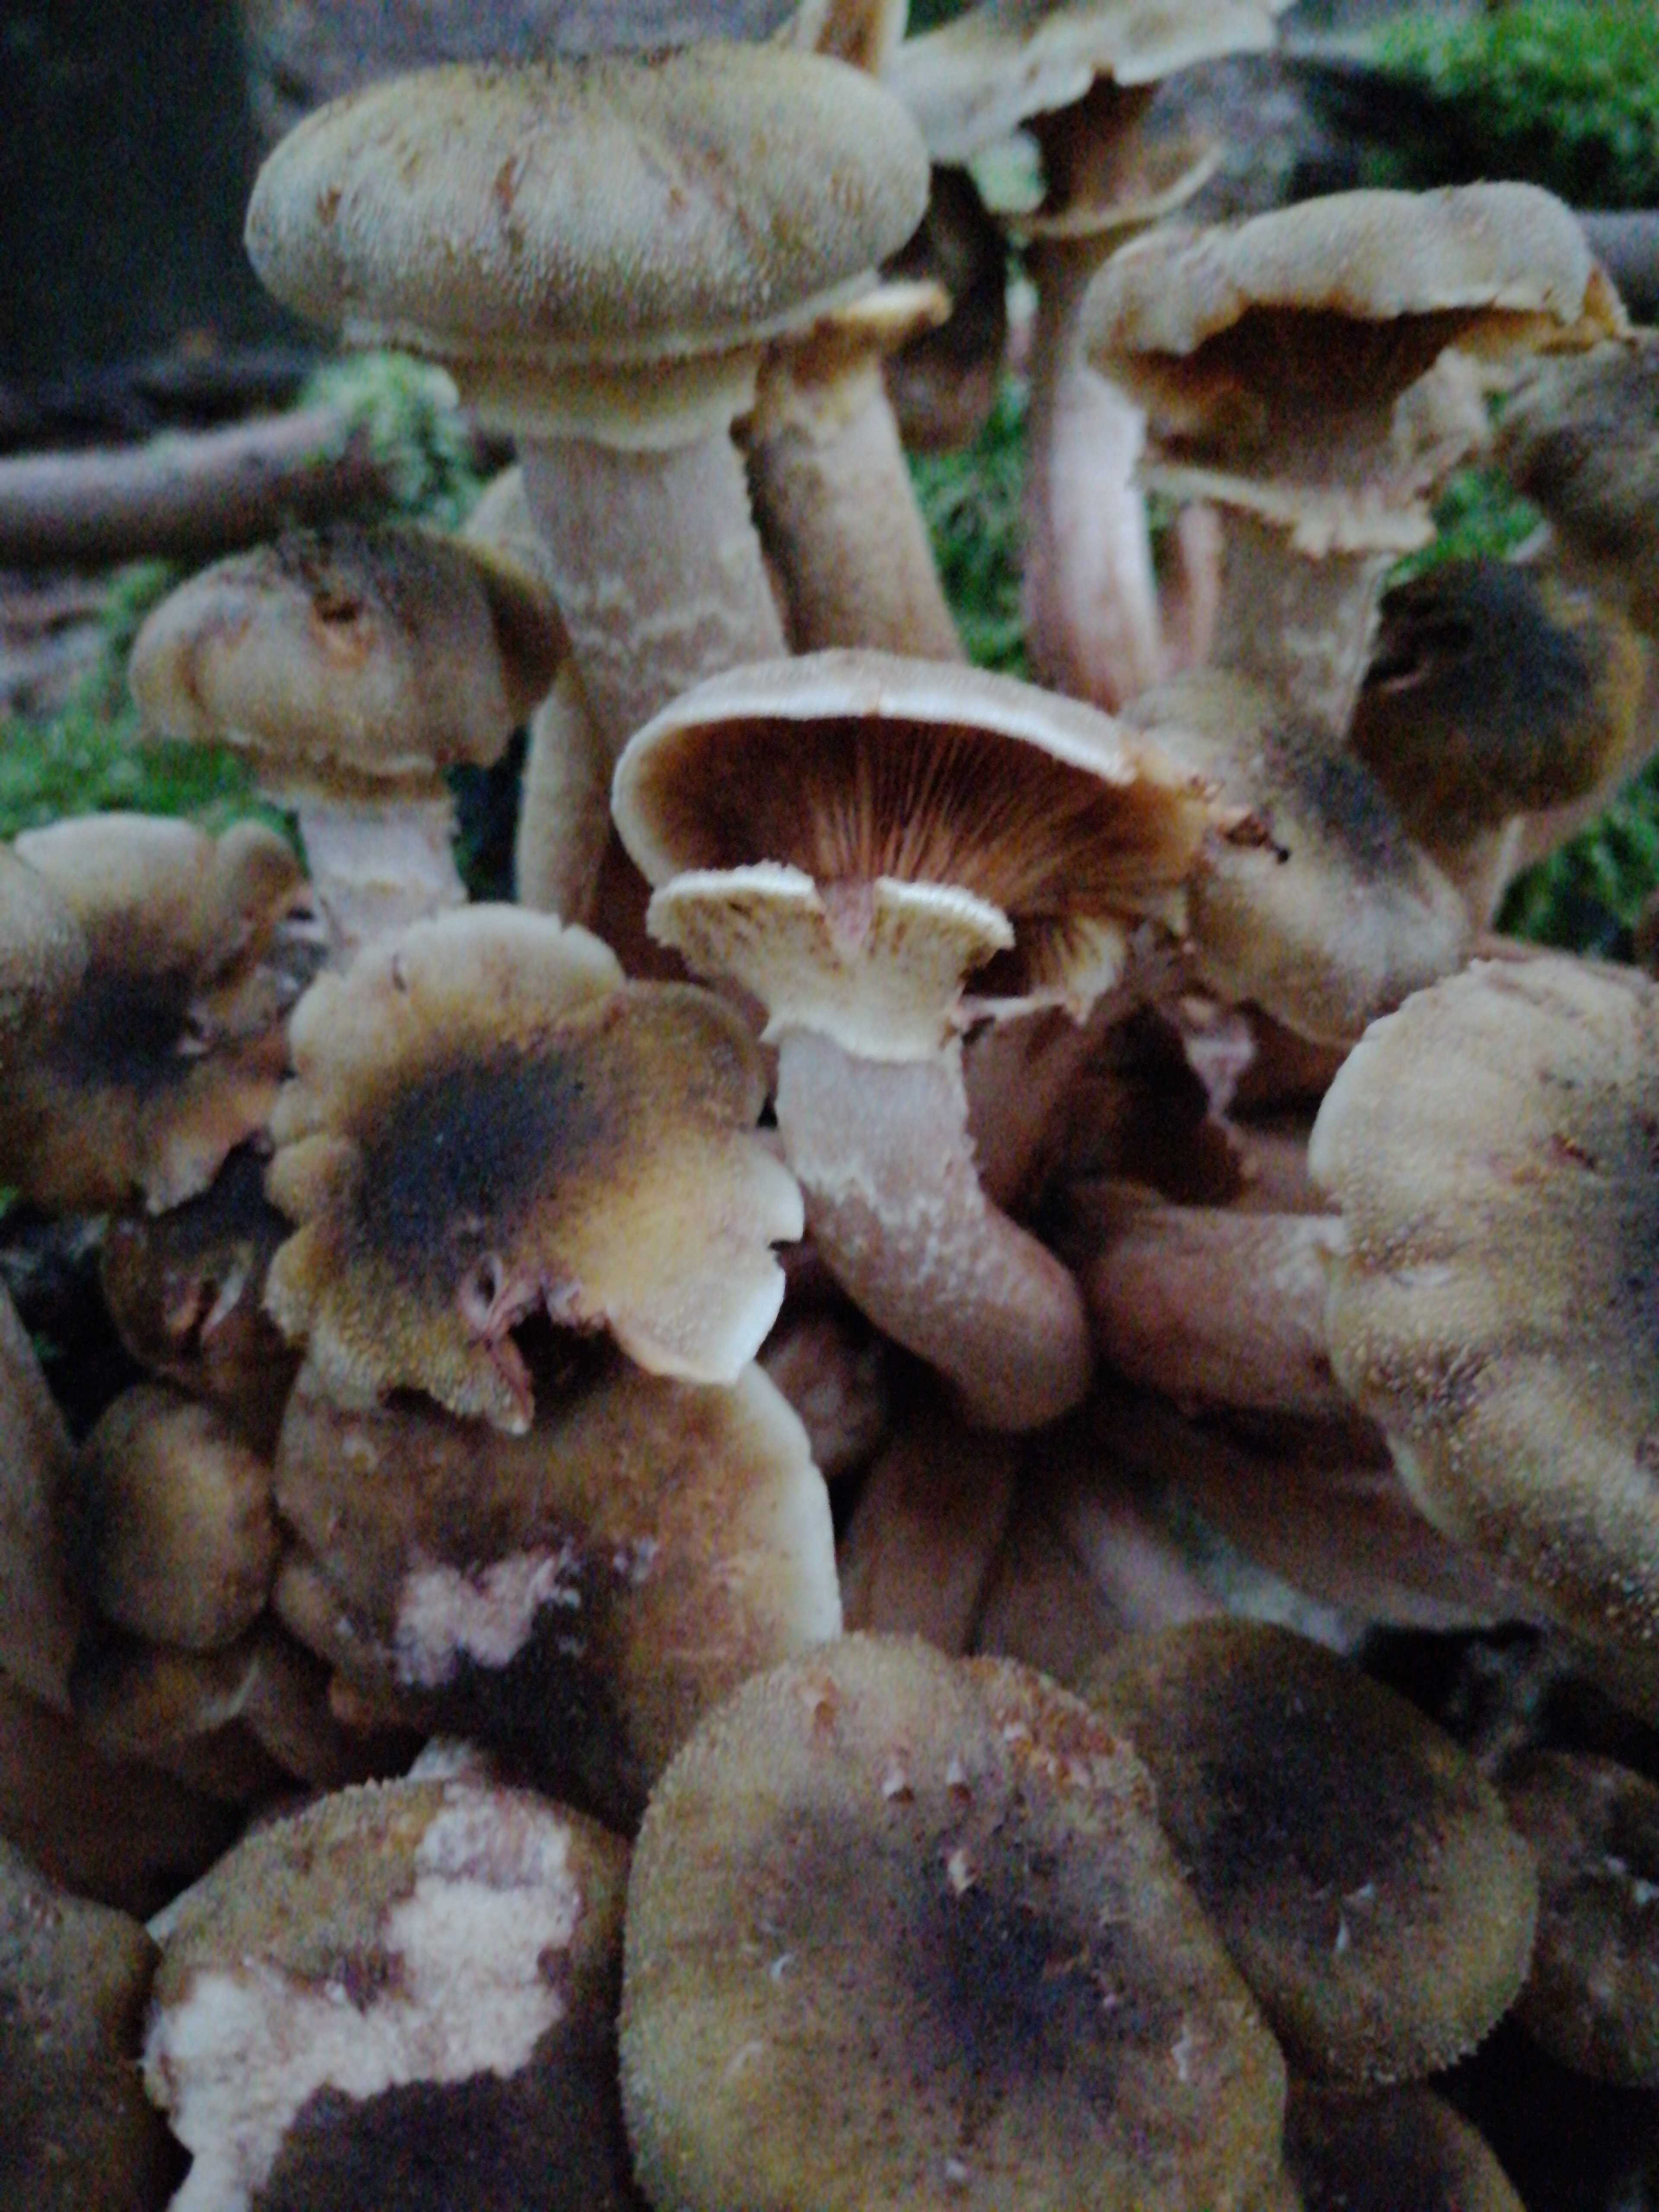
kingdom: Fungi
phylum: Basidiomycota
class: Agaricomycetes
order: Agaricales
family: Physalacriaceae
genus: Armillaria
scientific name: Armillaria lutea
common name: køllestokket honningsvamp
